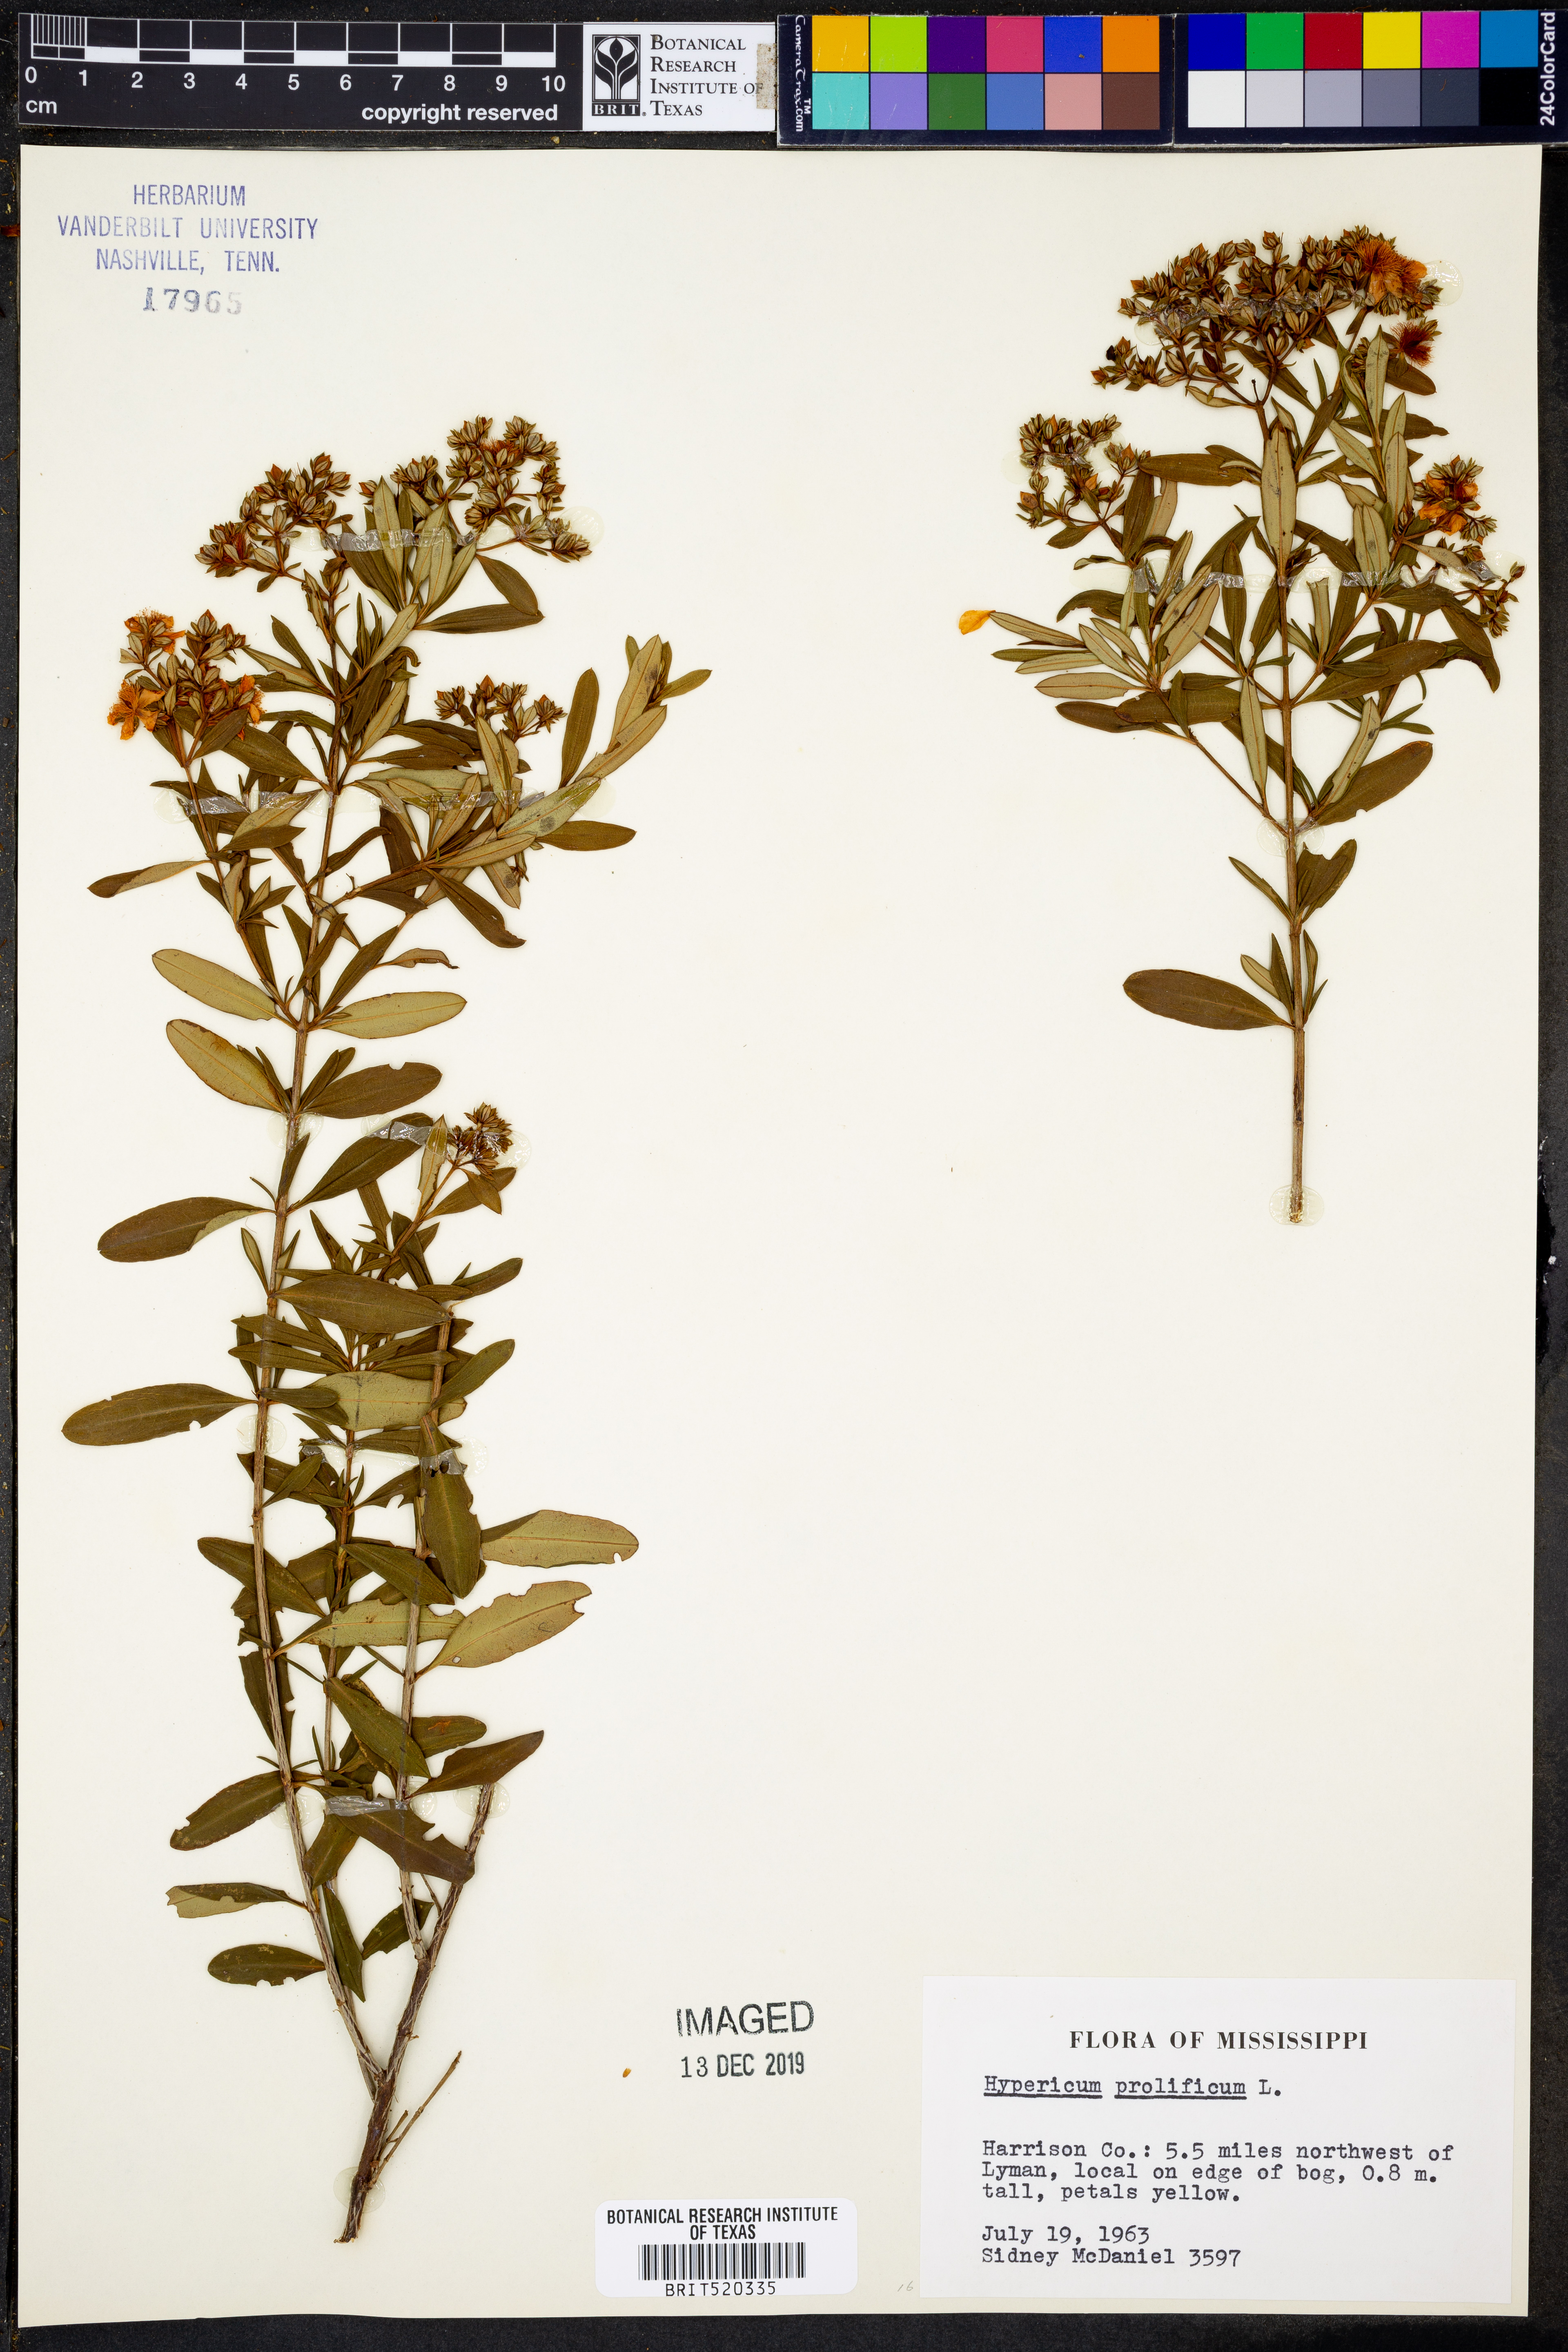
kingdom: Plantae
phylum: Tracheophyta
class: Magnoliopsida
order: Malpighiales
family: Hypericaceae
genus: Hypericum
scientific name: Hypericum prolificum
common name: Shrubby st. john's-wort
